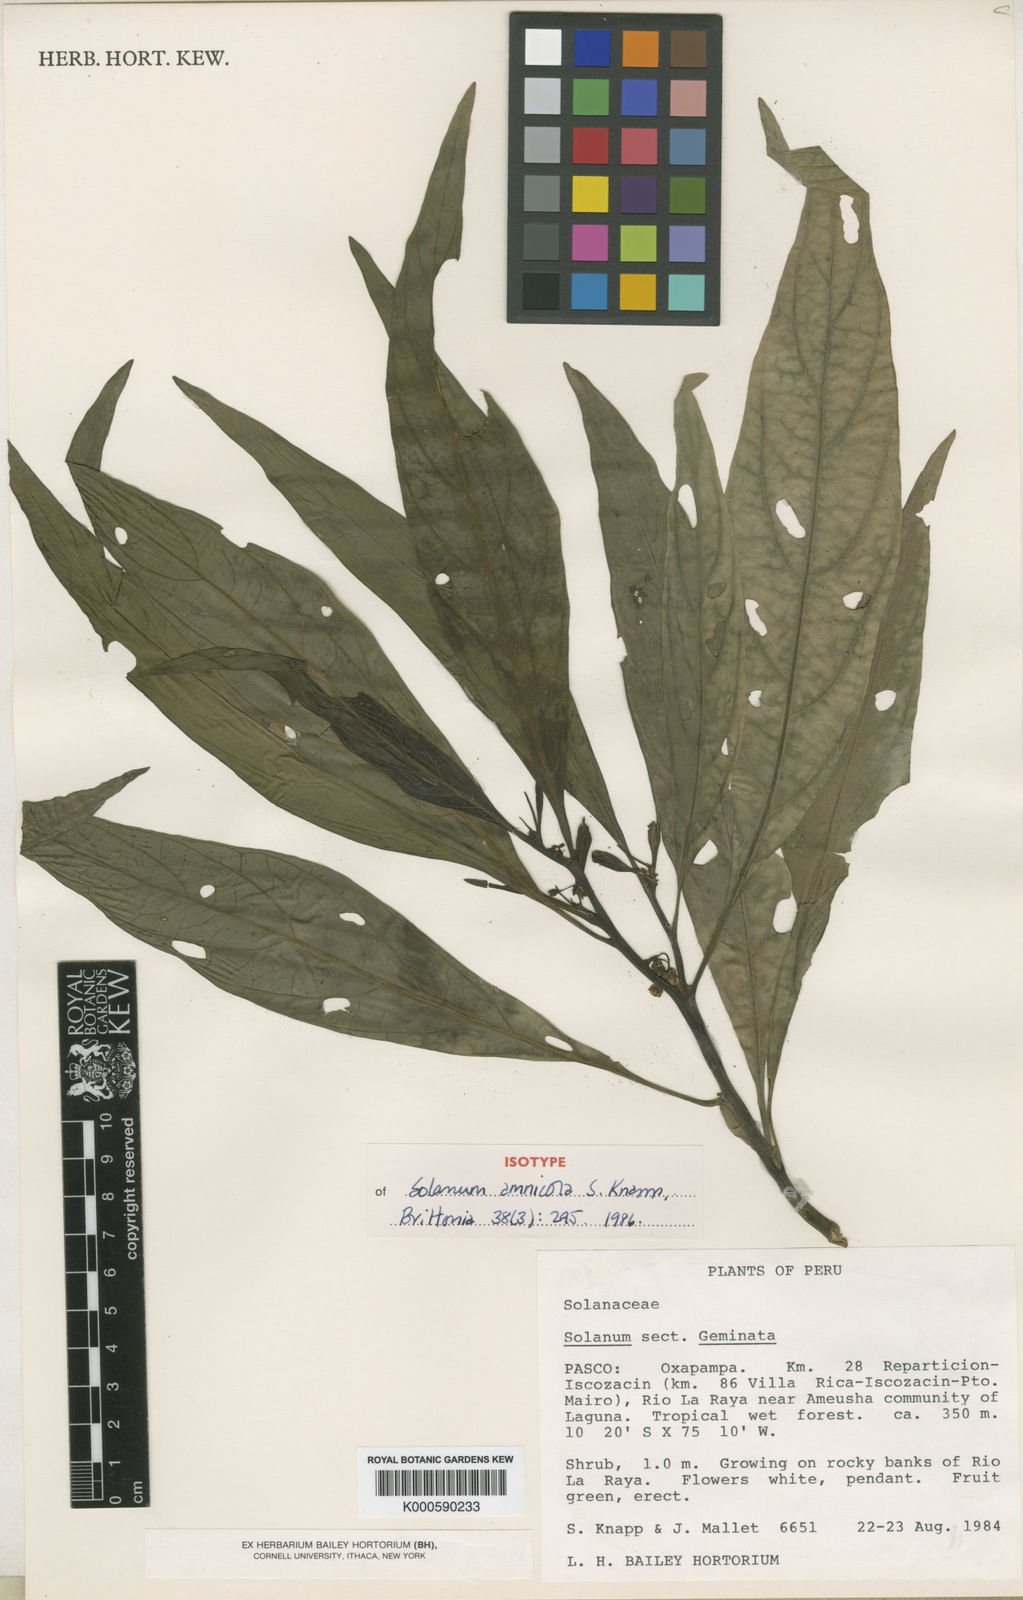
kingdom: Plantae
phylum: Tracheophyta
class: Magnoliopsida
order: Solanales
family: Solanaceae
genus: Solanum
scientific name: Solanum amnicola
